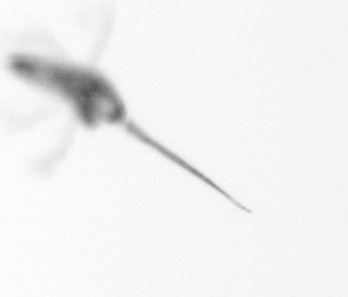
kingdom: Animalia
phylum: Arthropoda
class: Copepoda
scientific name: Copepoda
